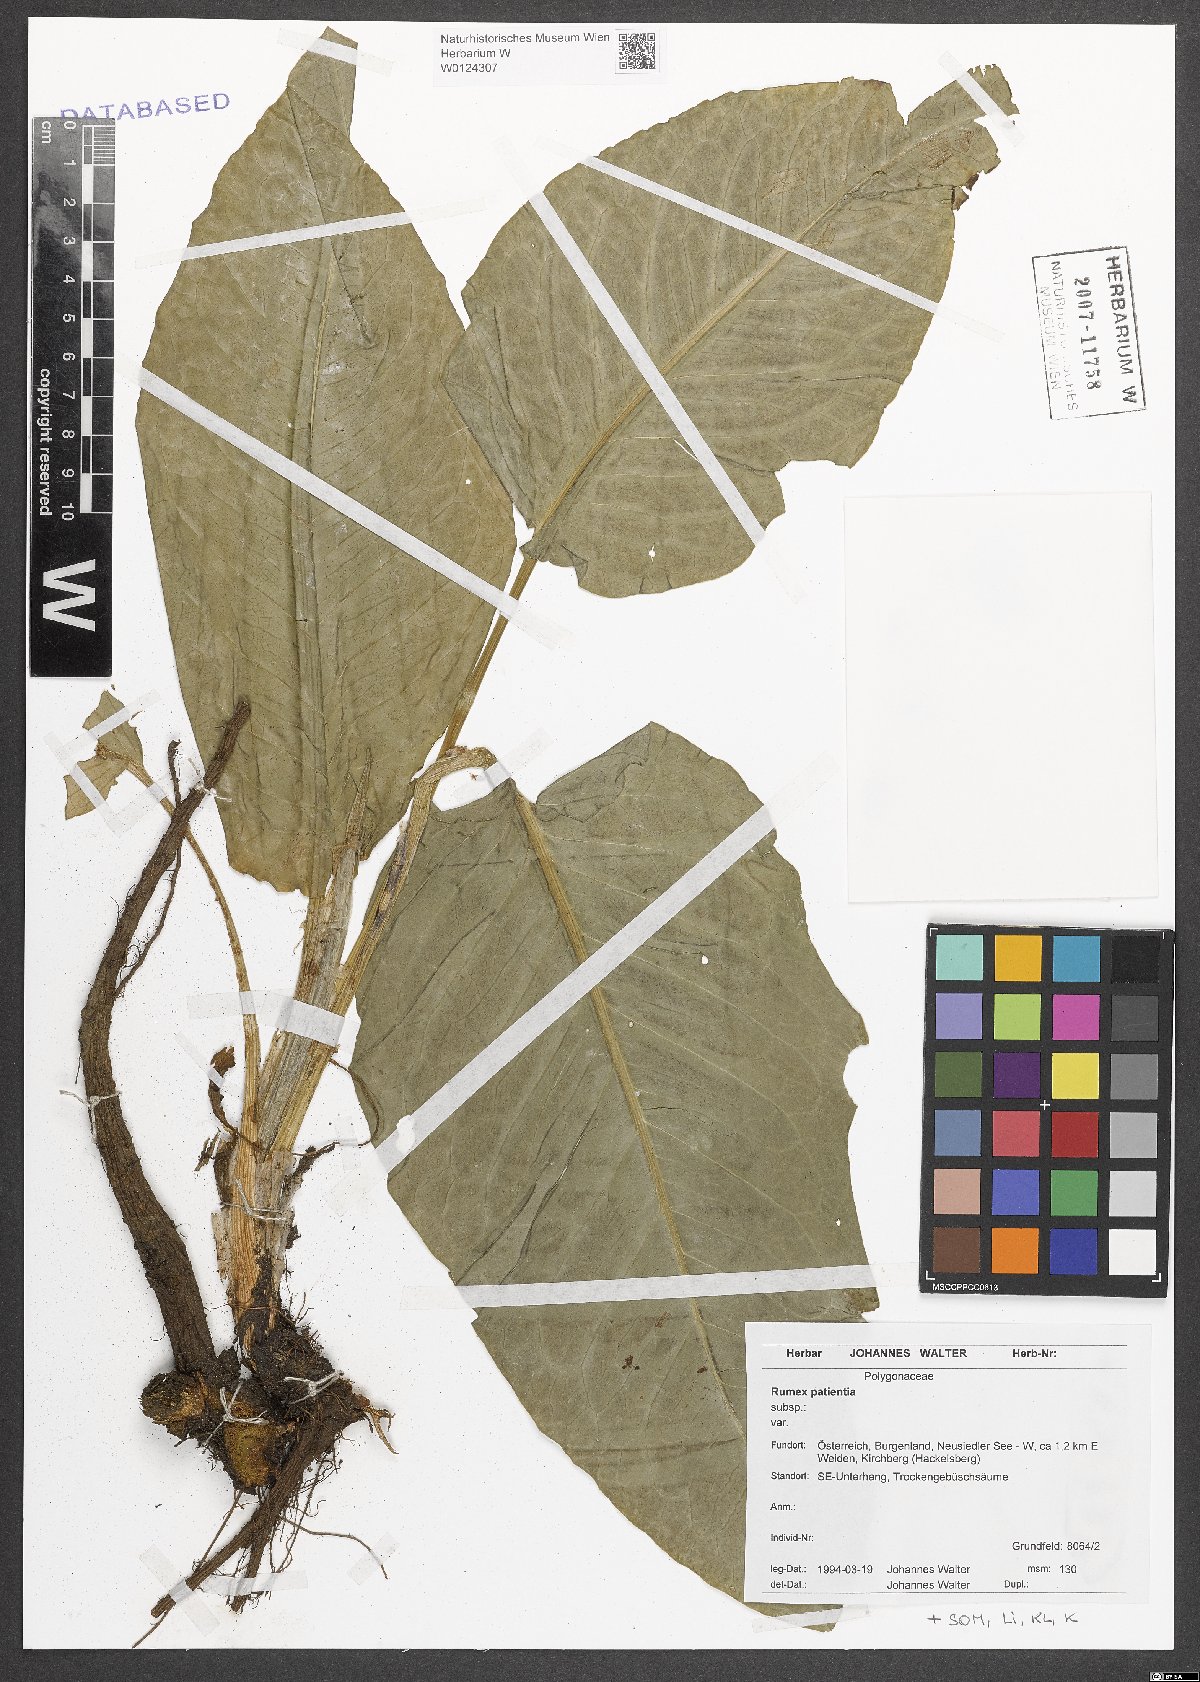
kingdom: Plantae
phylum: Tracheophyta
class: Magnoliopsida
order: Caryophyllales
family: Polygonaceae
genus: Rumex
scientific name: Rumex patientia
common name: Patience dock
